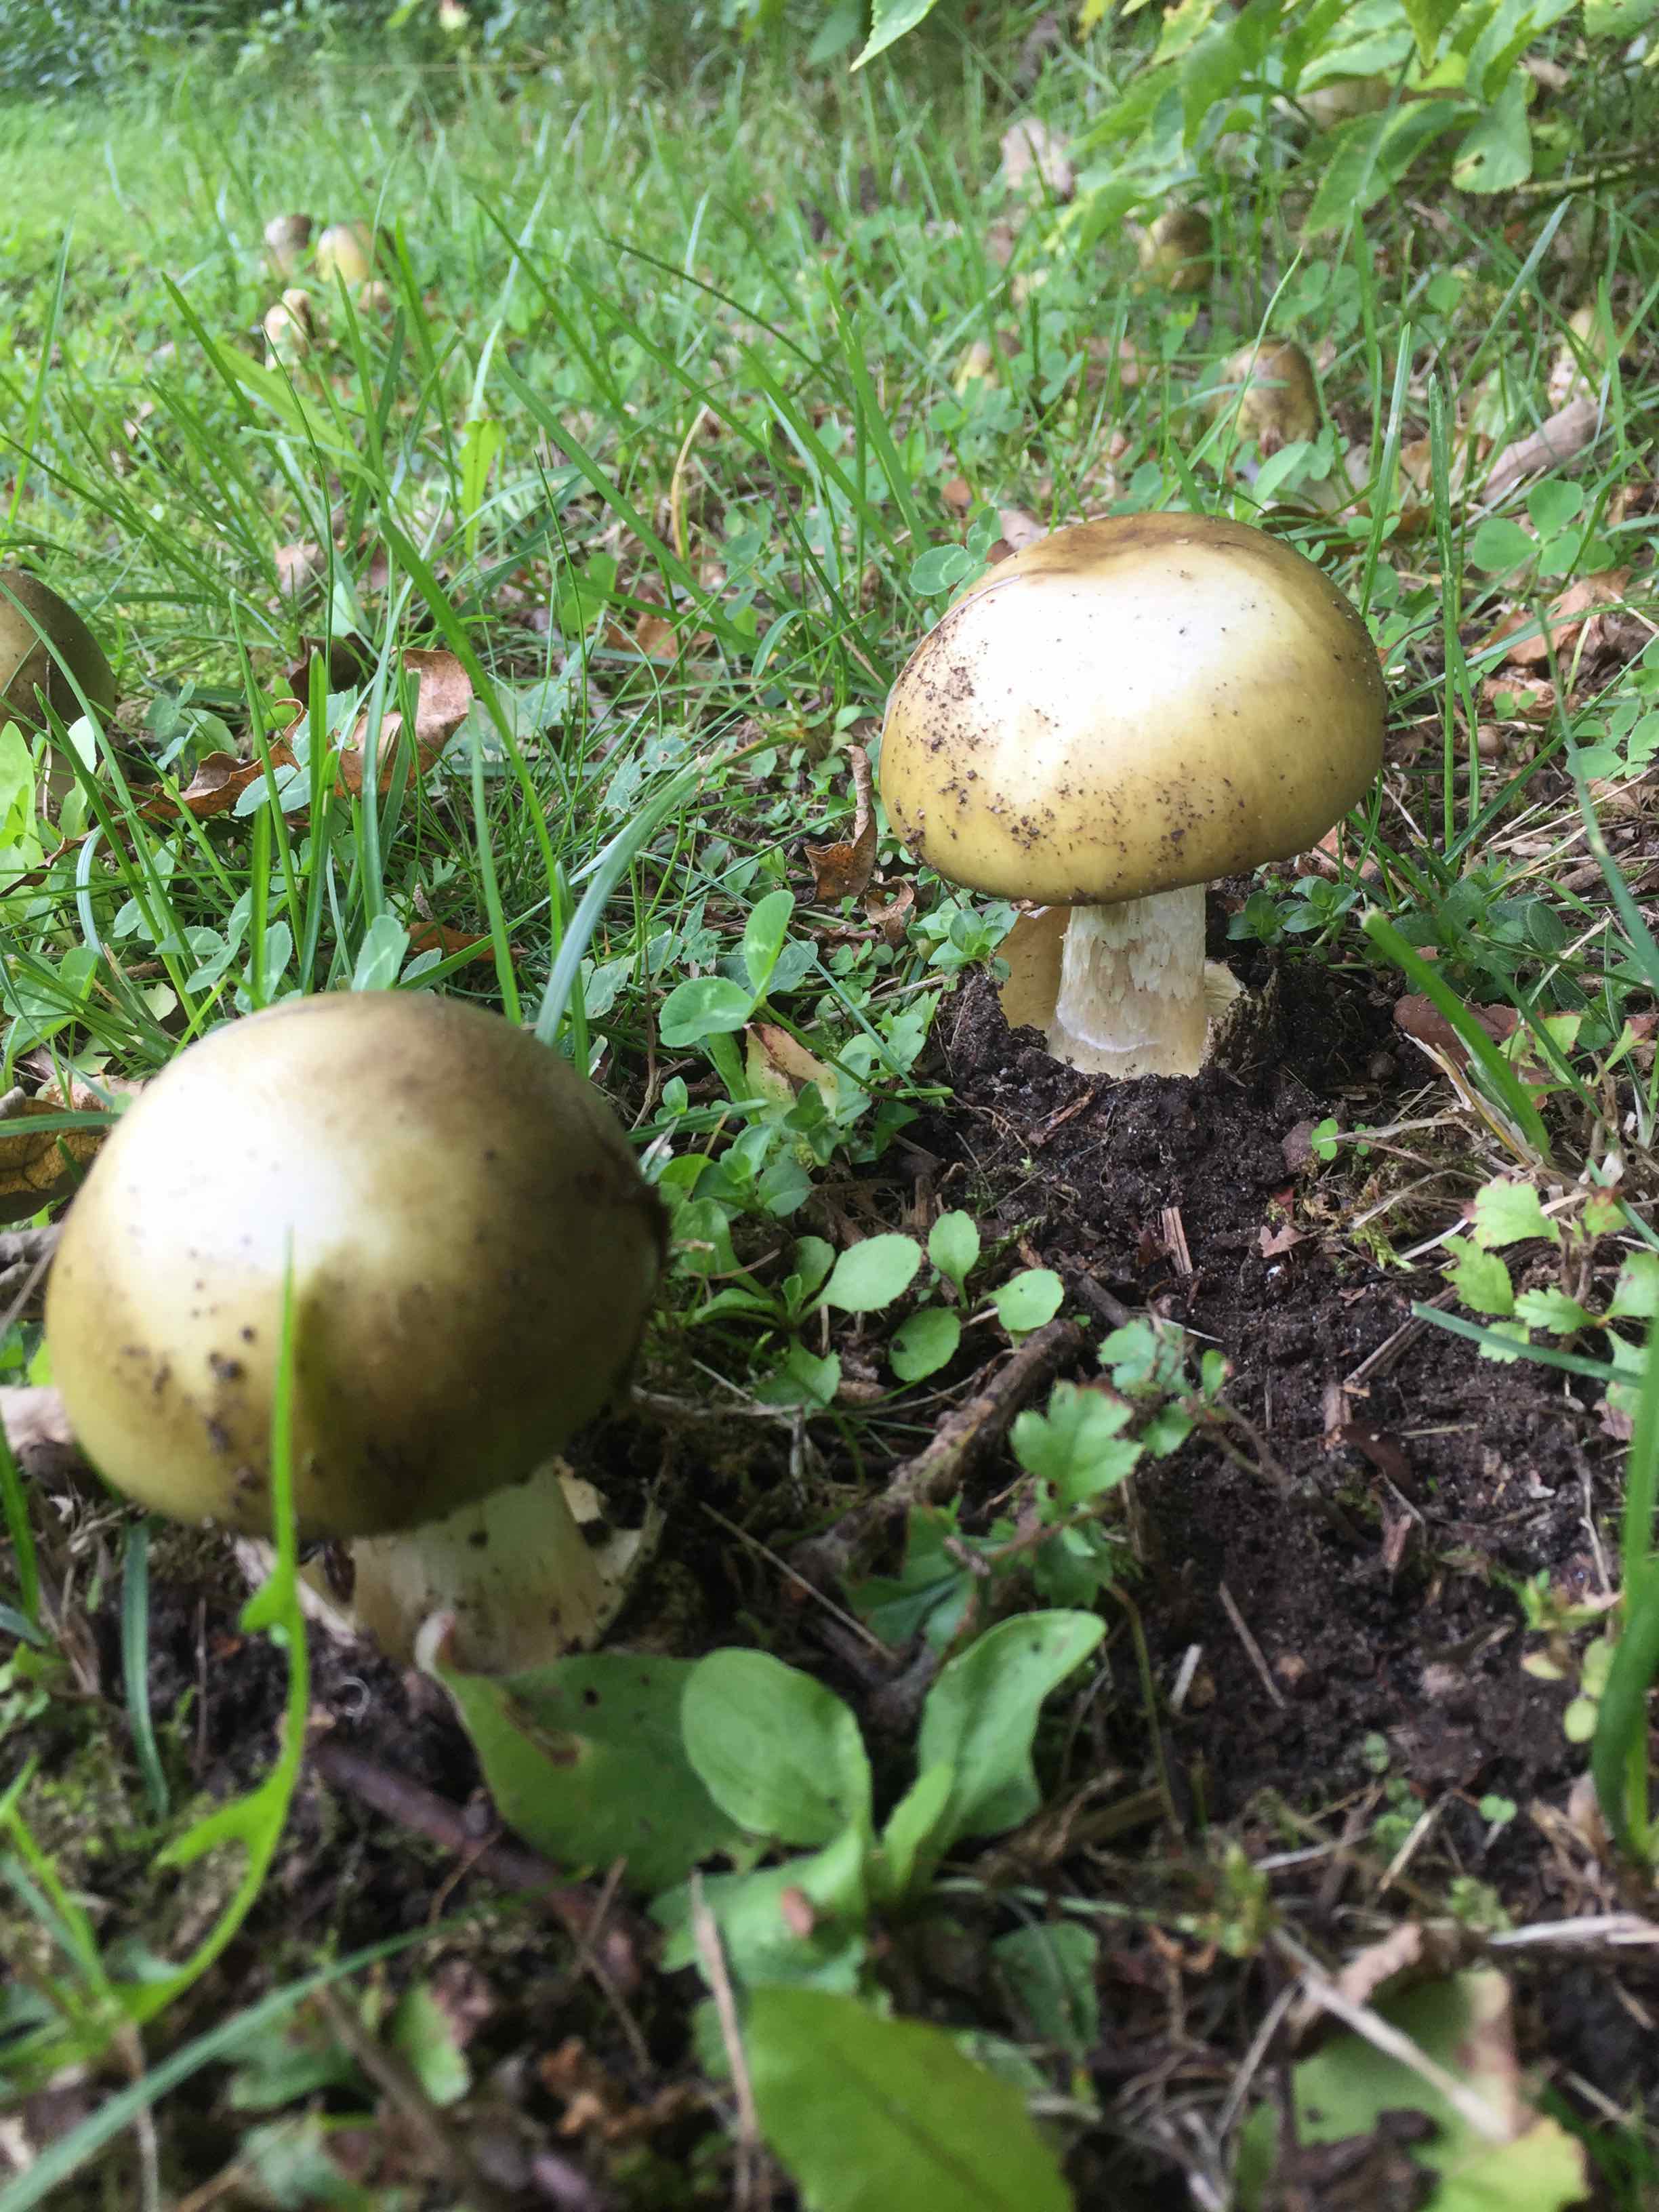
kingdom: Fungi
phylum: Basidiomycota
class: Agaricomycetes
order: Agaricales
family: Amanitaceae
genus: Amanita
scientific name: Amanita phalloides
